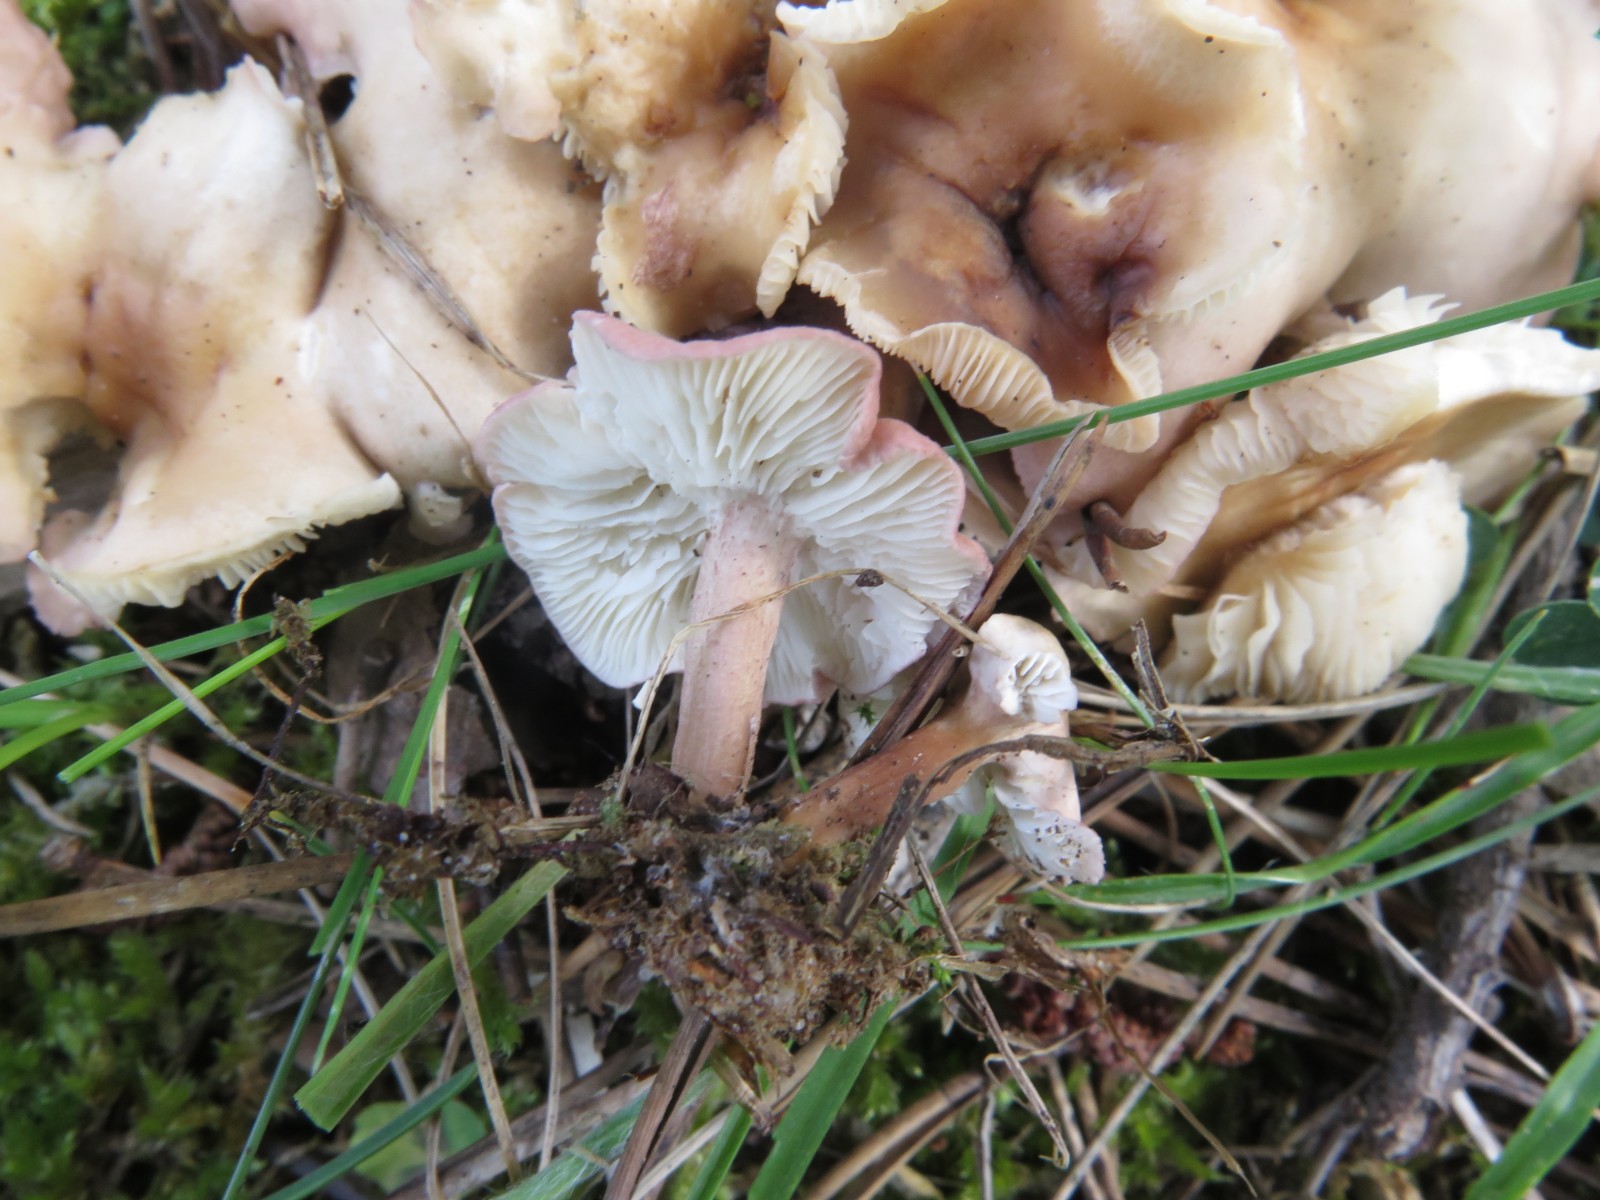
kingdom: Fungi
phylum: Basidiomycota
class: Agaricomycetes
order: Agaricales
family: Lyophyllaceae
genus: Calocybe
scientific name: Calocybe carnea
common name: rosa fagerhat
